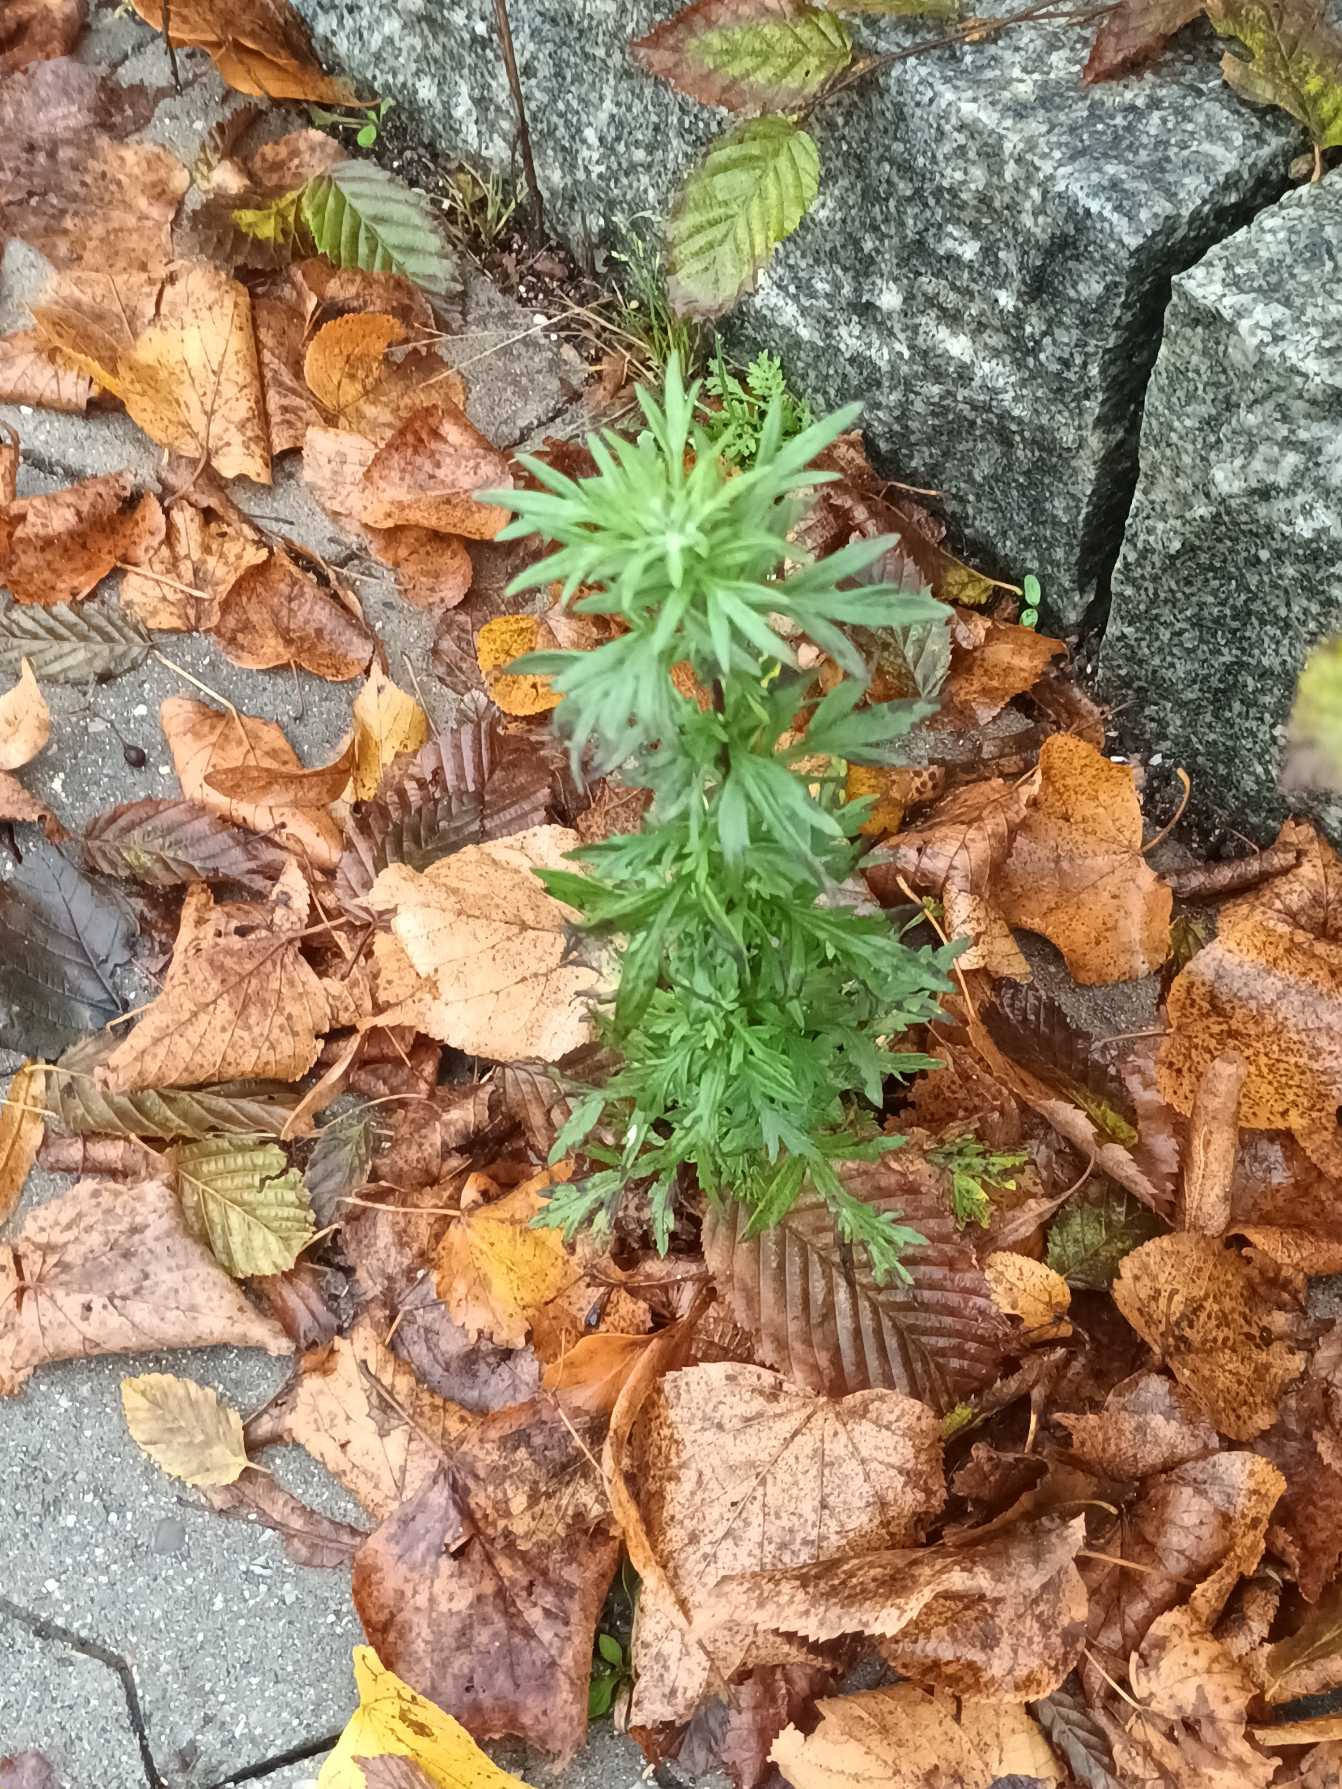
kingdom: Plantae
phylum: Tracheophyta
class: Magnoliopsida
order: Asterales
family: Asteraceae
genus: Artemisia
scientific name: Artemisia vulgaris
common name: Grå-bynke
